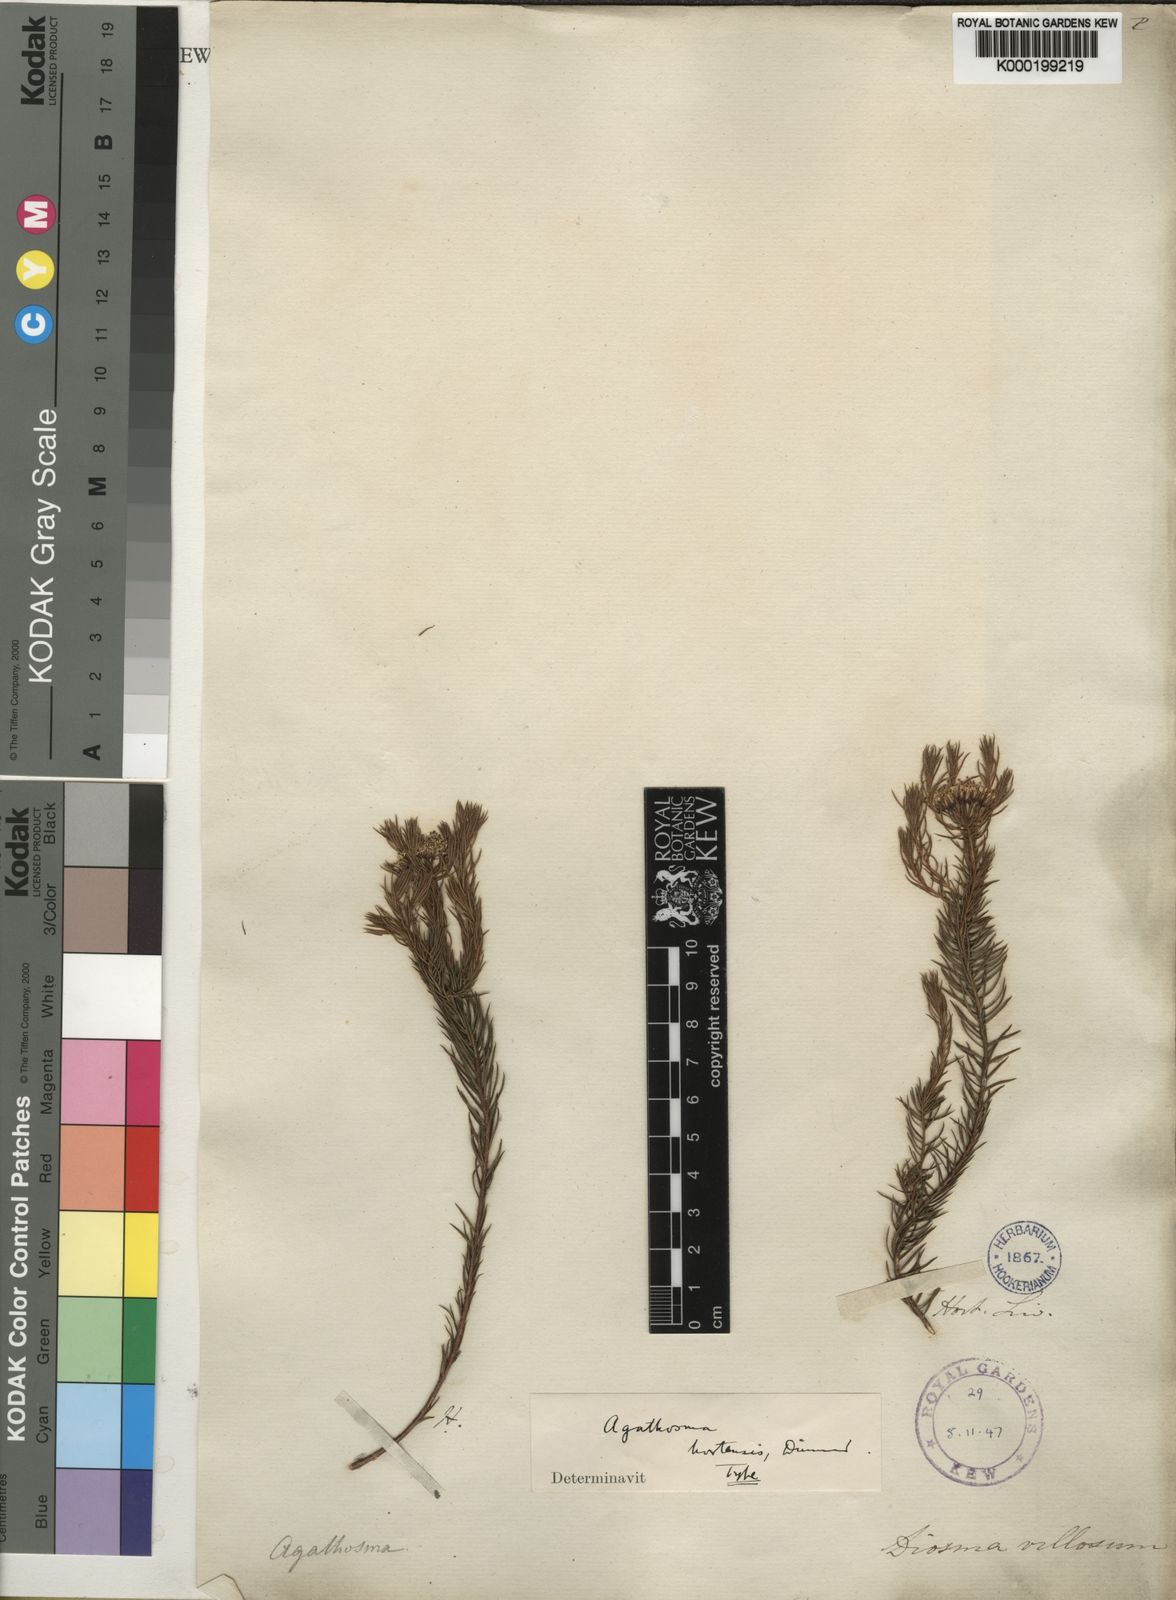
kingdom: Plantae
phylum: Tracheophyta
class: Magnoliopsida
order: Sapindales
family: Rutaceae
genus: Agathosma
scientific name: Agathosma
